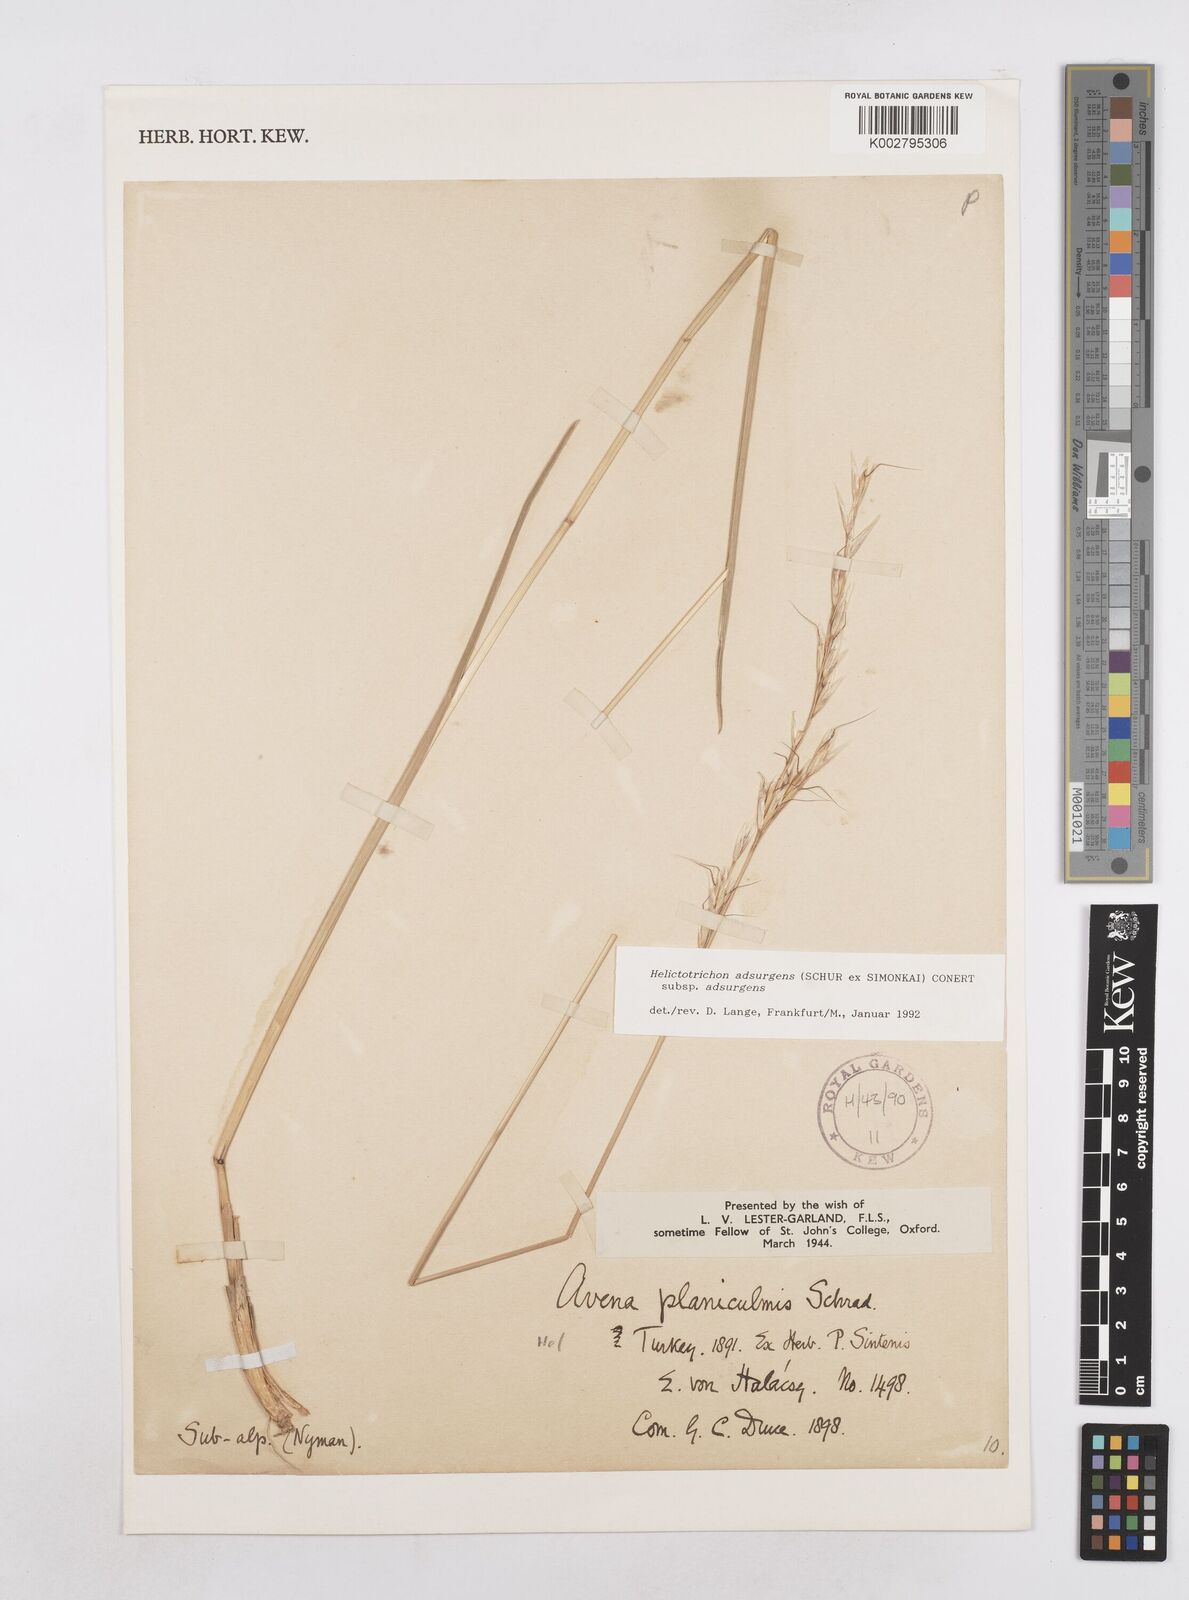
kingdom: Plantae
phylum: Tracheophyta
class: Liliopsida
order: Poales
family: Poaceae
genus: Helictochloa
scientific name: Helictochloa pratensis
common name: Meadow oat grass
